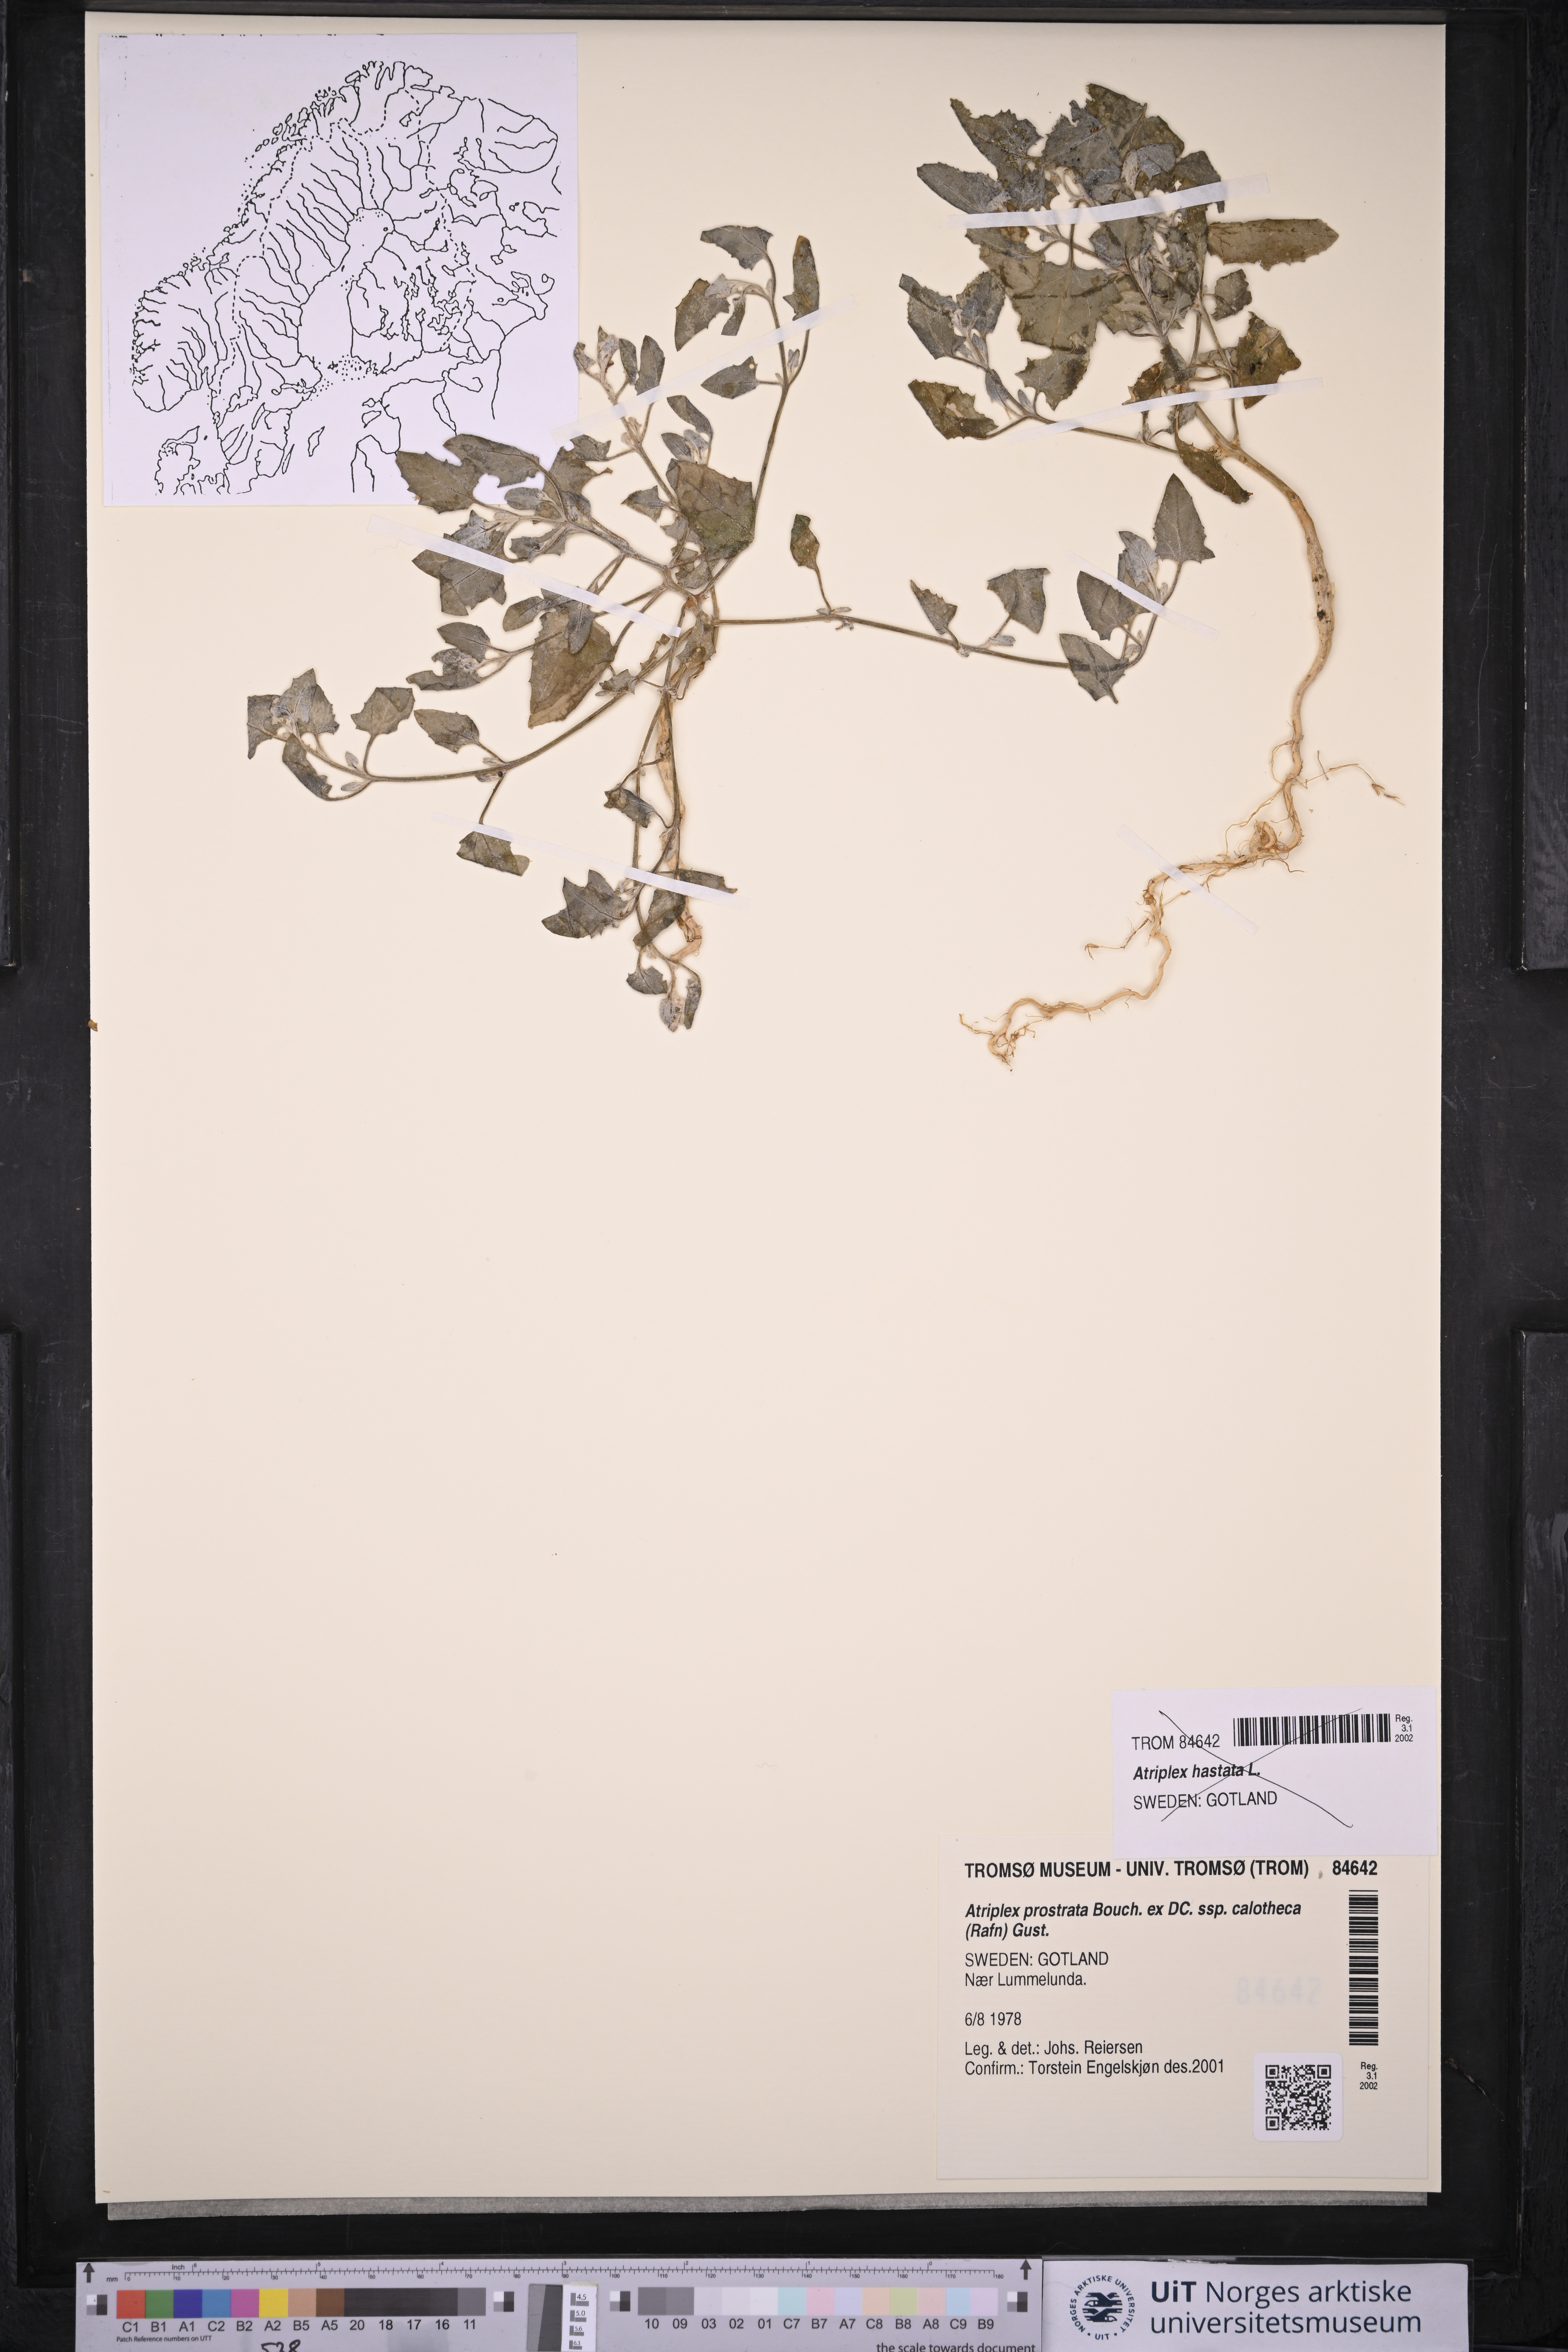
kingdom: Plantae
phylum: Tracheophyta
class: Magnoliopsida
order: Caryophyllales
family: Amaranthaceae
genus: Atriplex
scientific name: Atriplex calotheca
